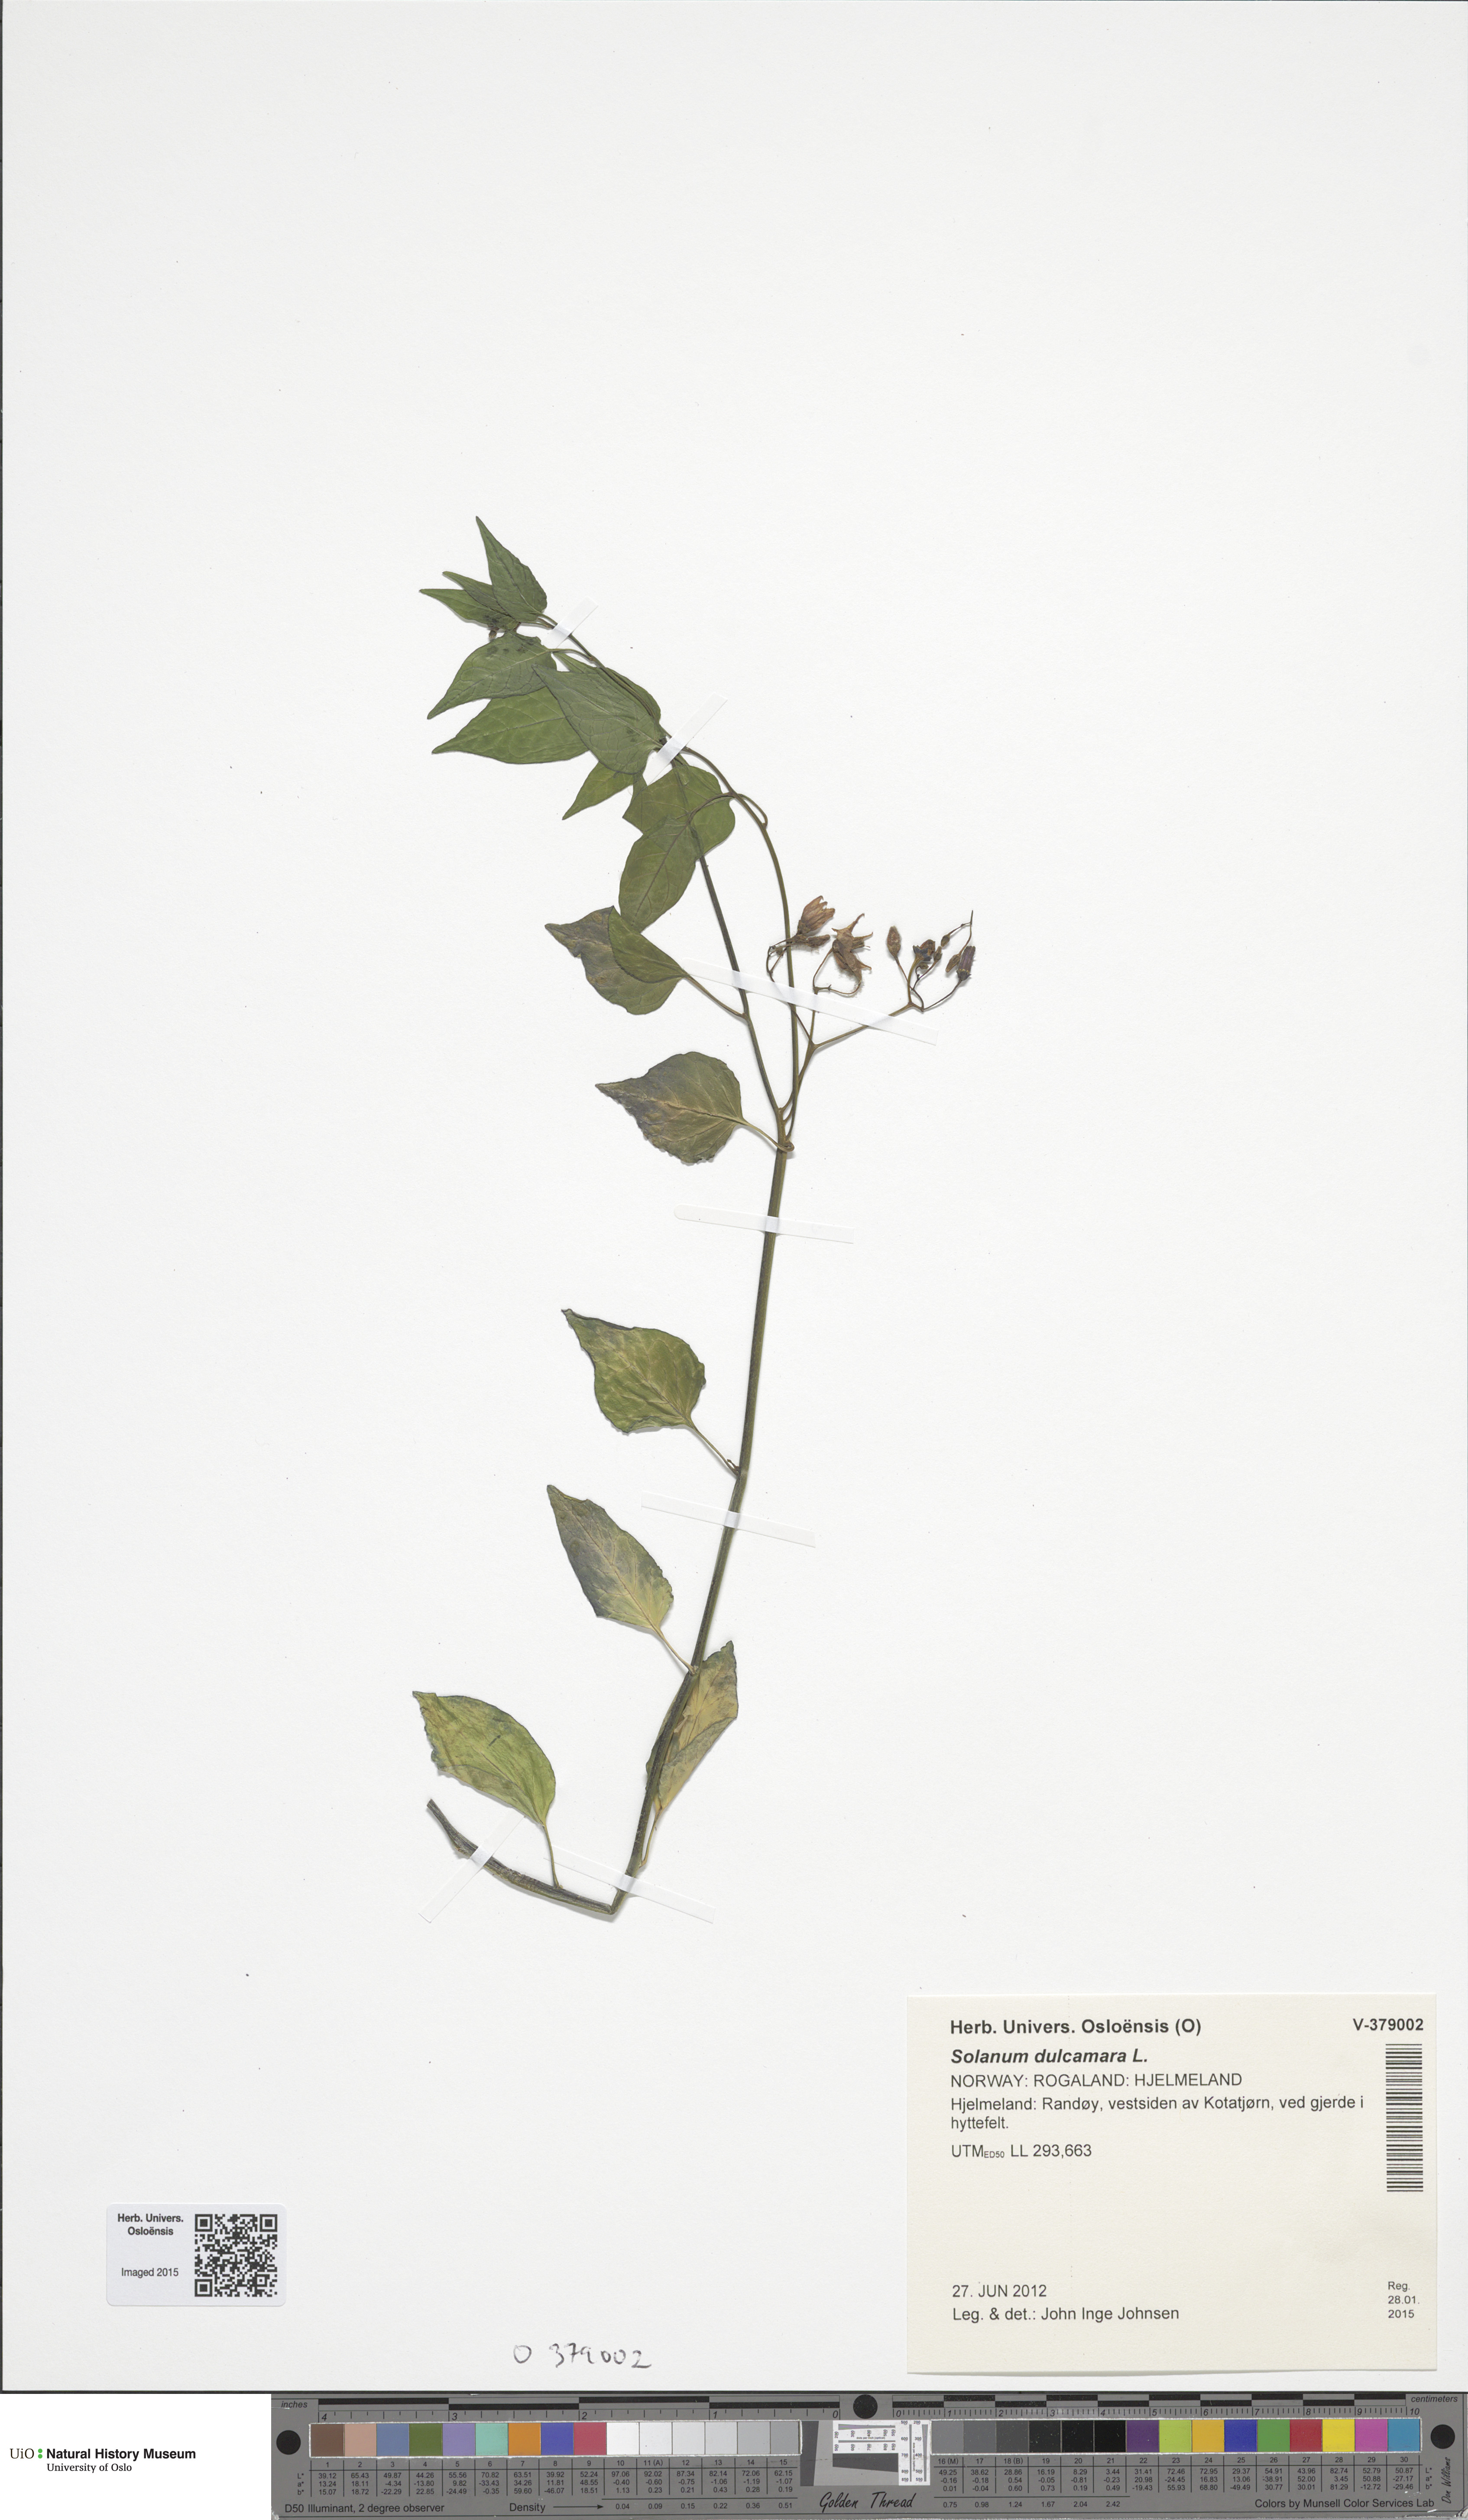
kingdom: Plantae
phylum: Tracheophyta
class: Magnoliopsida
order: Solanales
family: Solanaceae
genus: Solanum
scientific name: Solanum dulcamara
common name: Climbing nightshade
